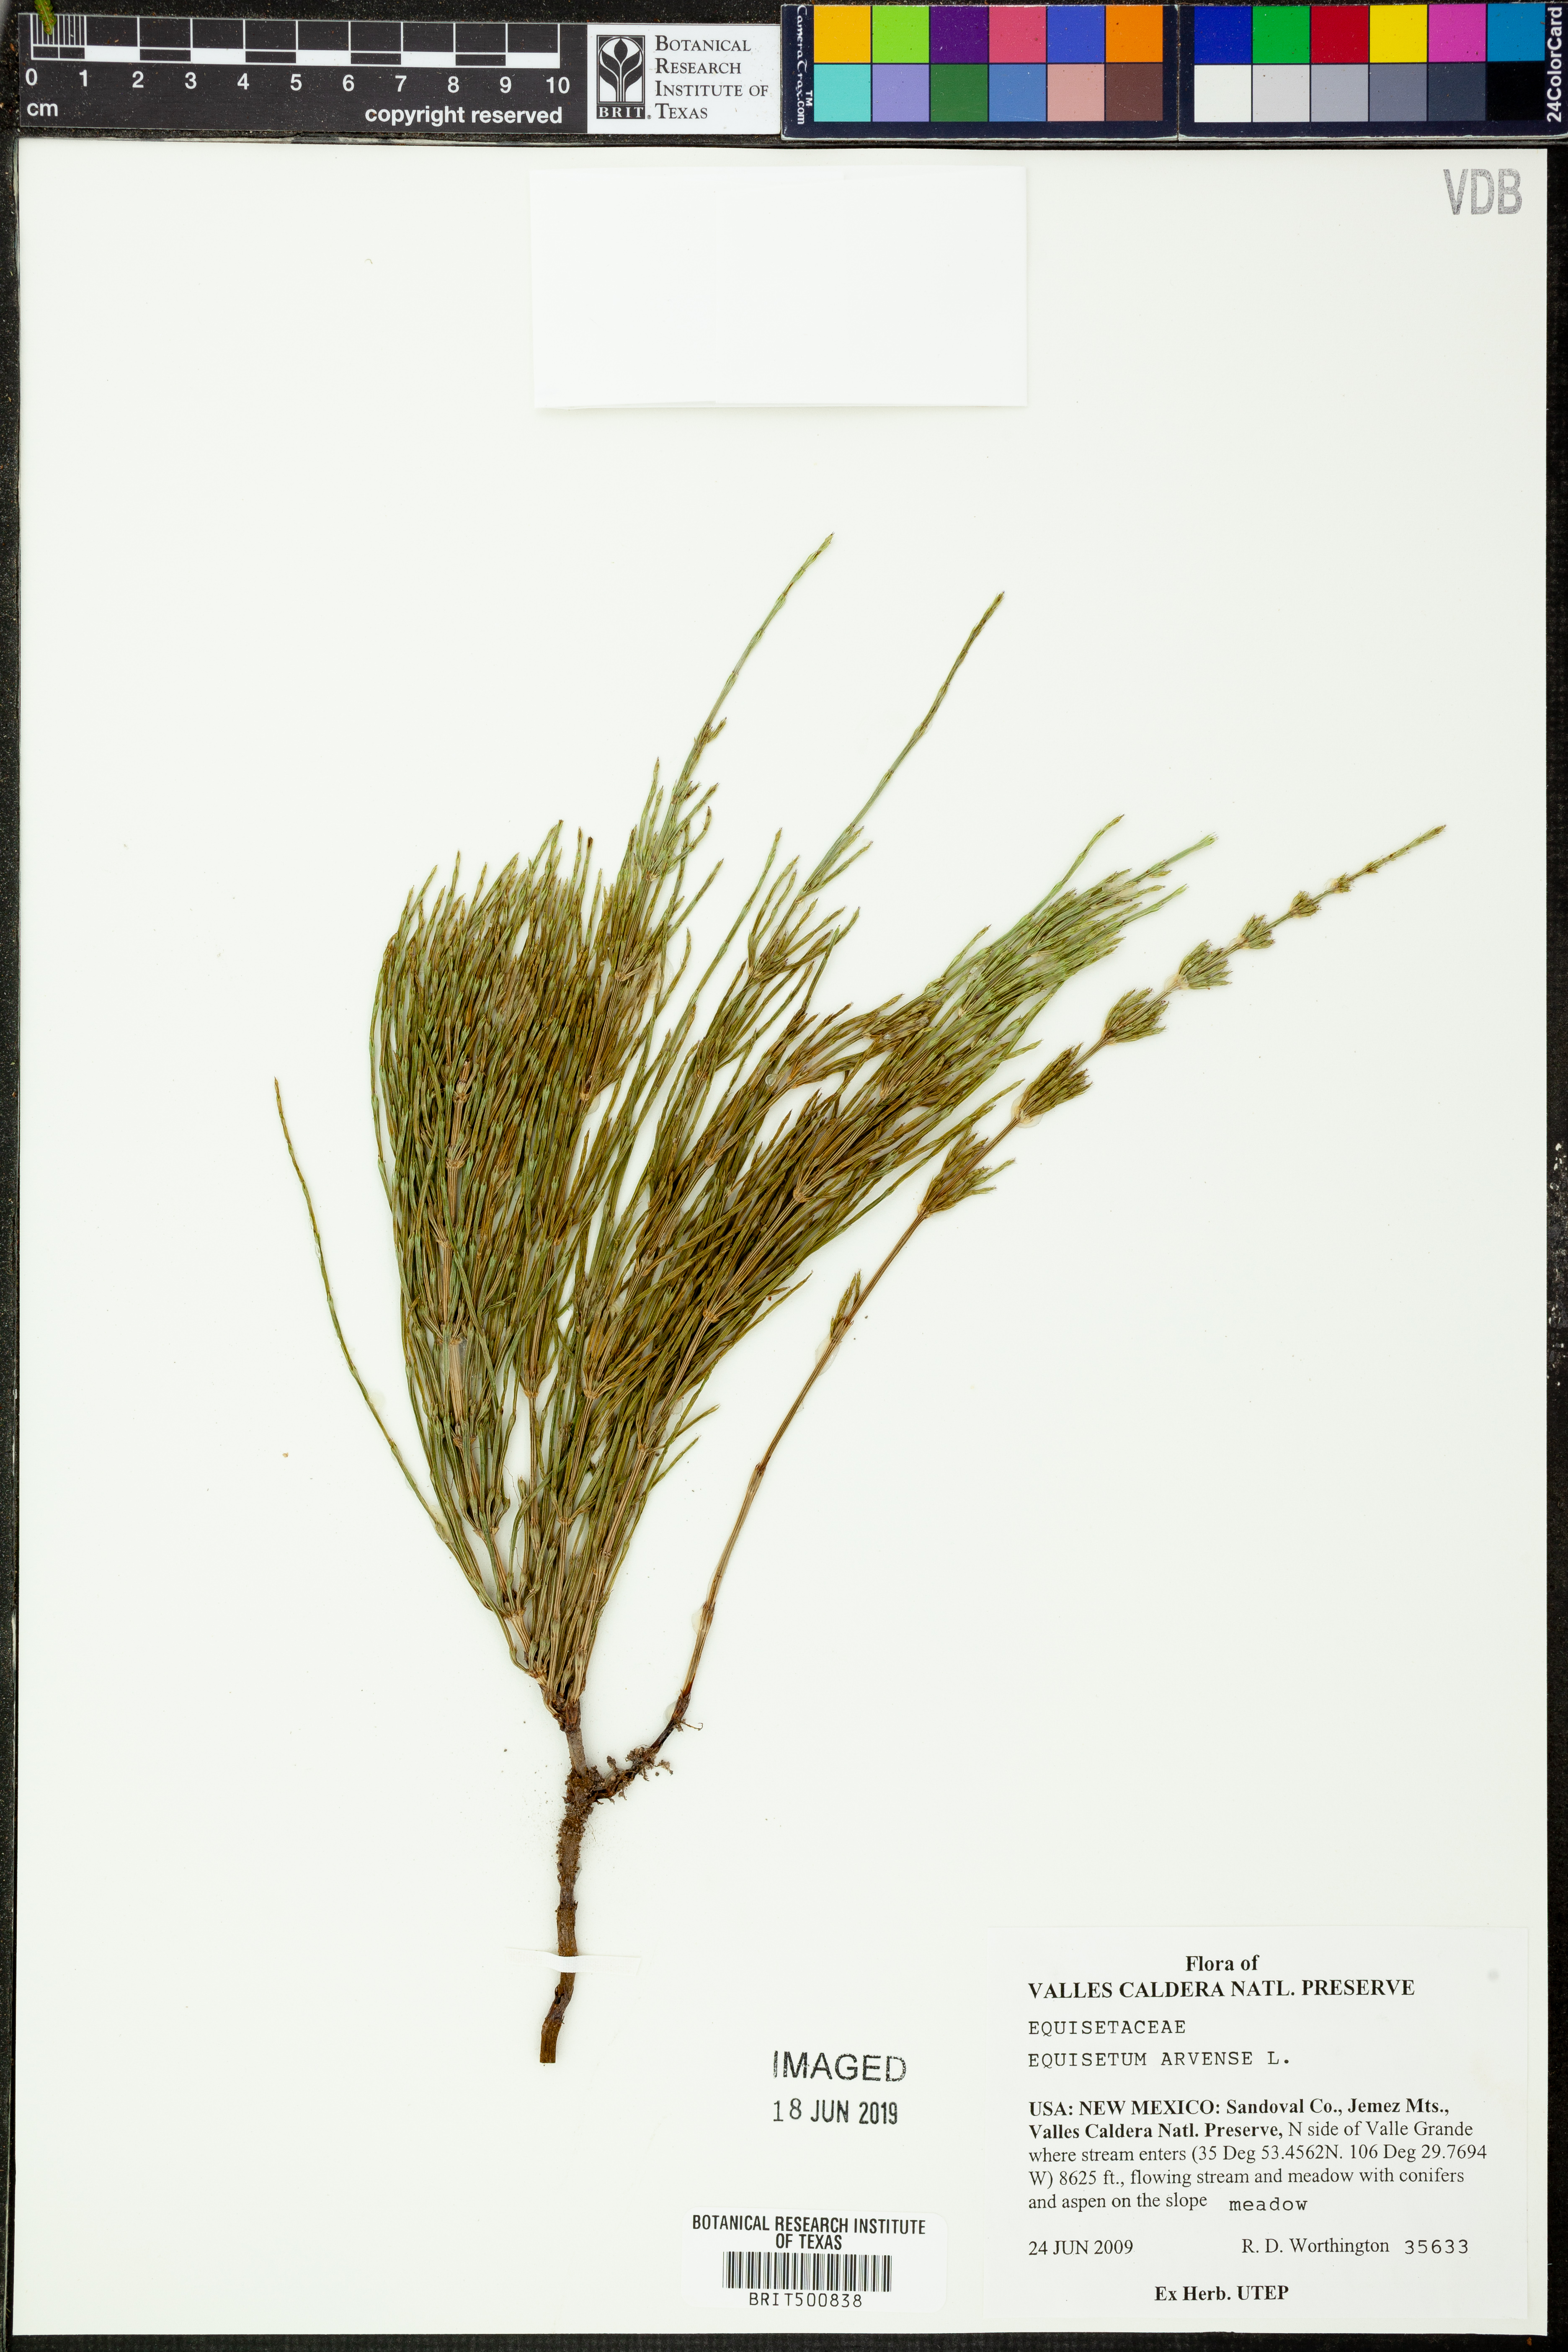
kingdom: Plantae
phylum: Tracheophyta
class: Polypodiopsida
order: Equisetales
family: Equisetaceae
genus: Equisetum
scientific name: Equisetum arvense
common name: Field horsetail
